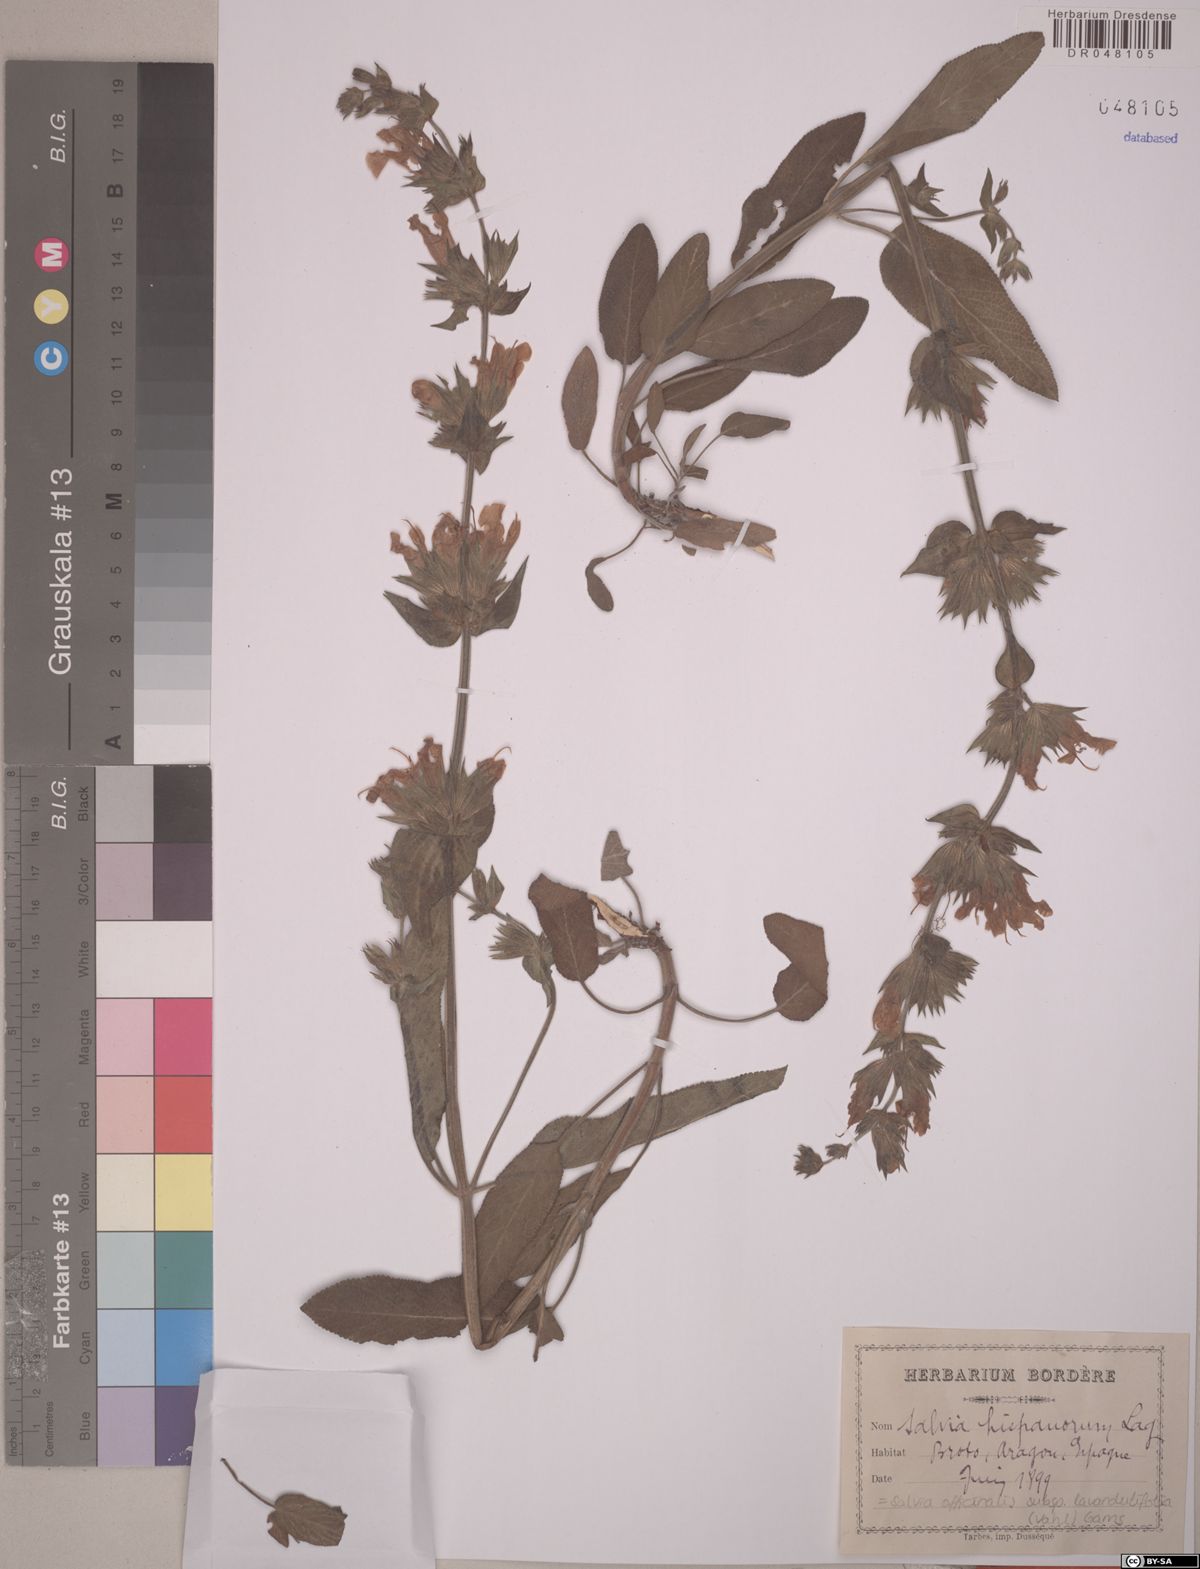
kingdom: Plantae
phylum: Tracheophyta
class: Magnoliopsida
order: Lamiales
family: Lamiaceae
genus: Salvia
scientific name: Salvia officinalis
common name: Sage
